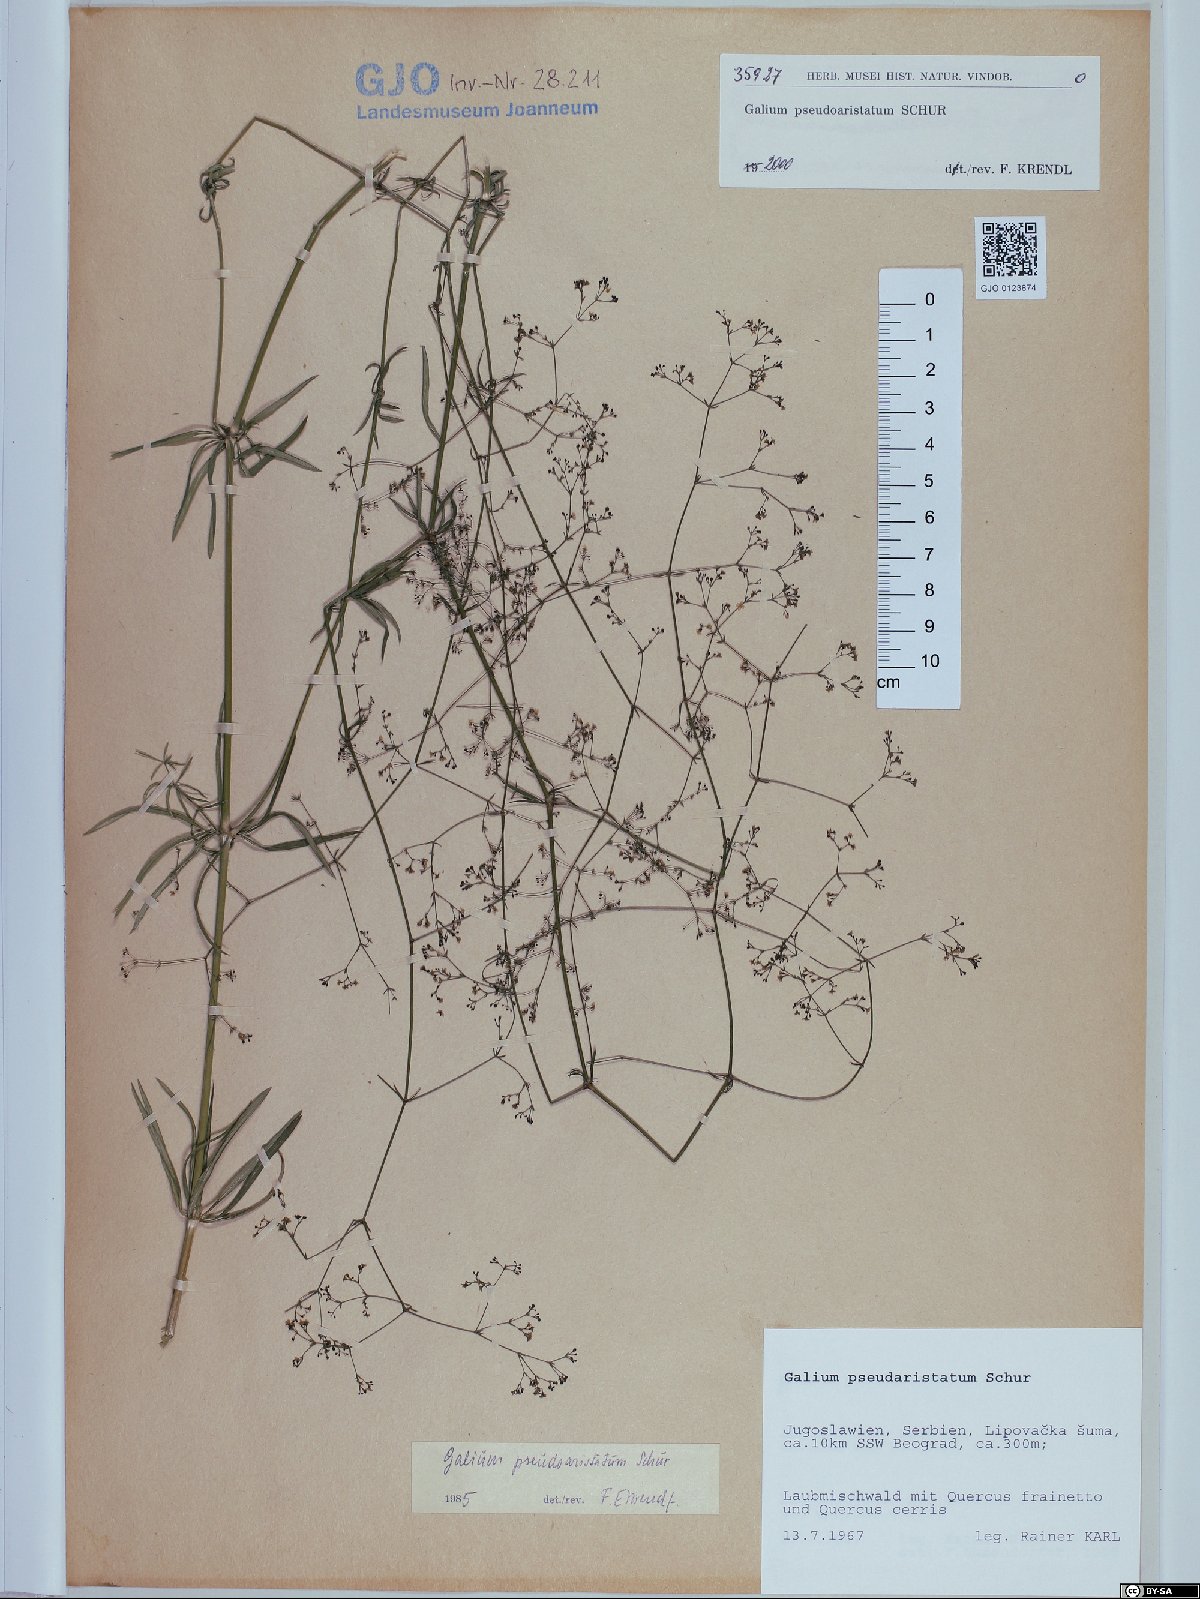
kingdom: Plantae
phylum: Tracheophyta
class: Magnoliopsida
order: Gentianales
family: Rubiaceae
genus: Galium
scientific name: Galium pseudoaristatum
